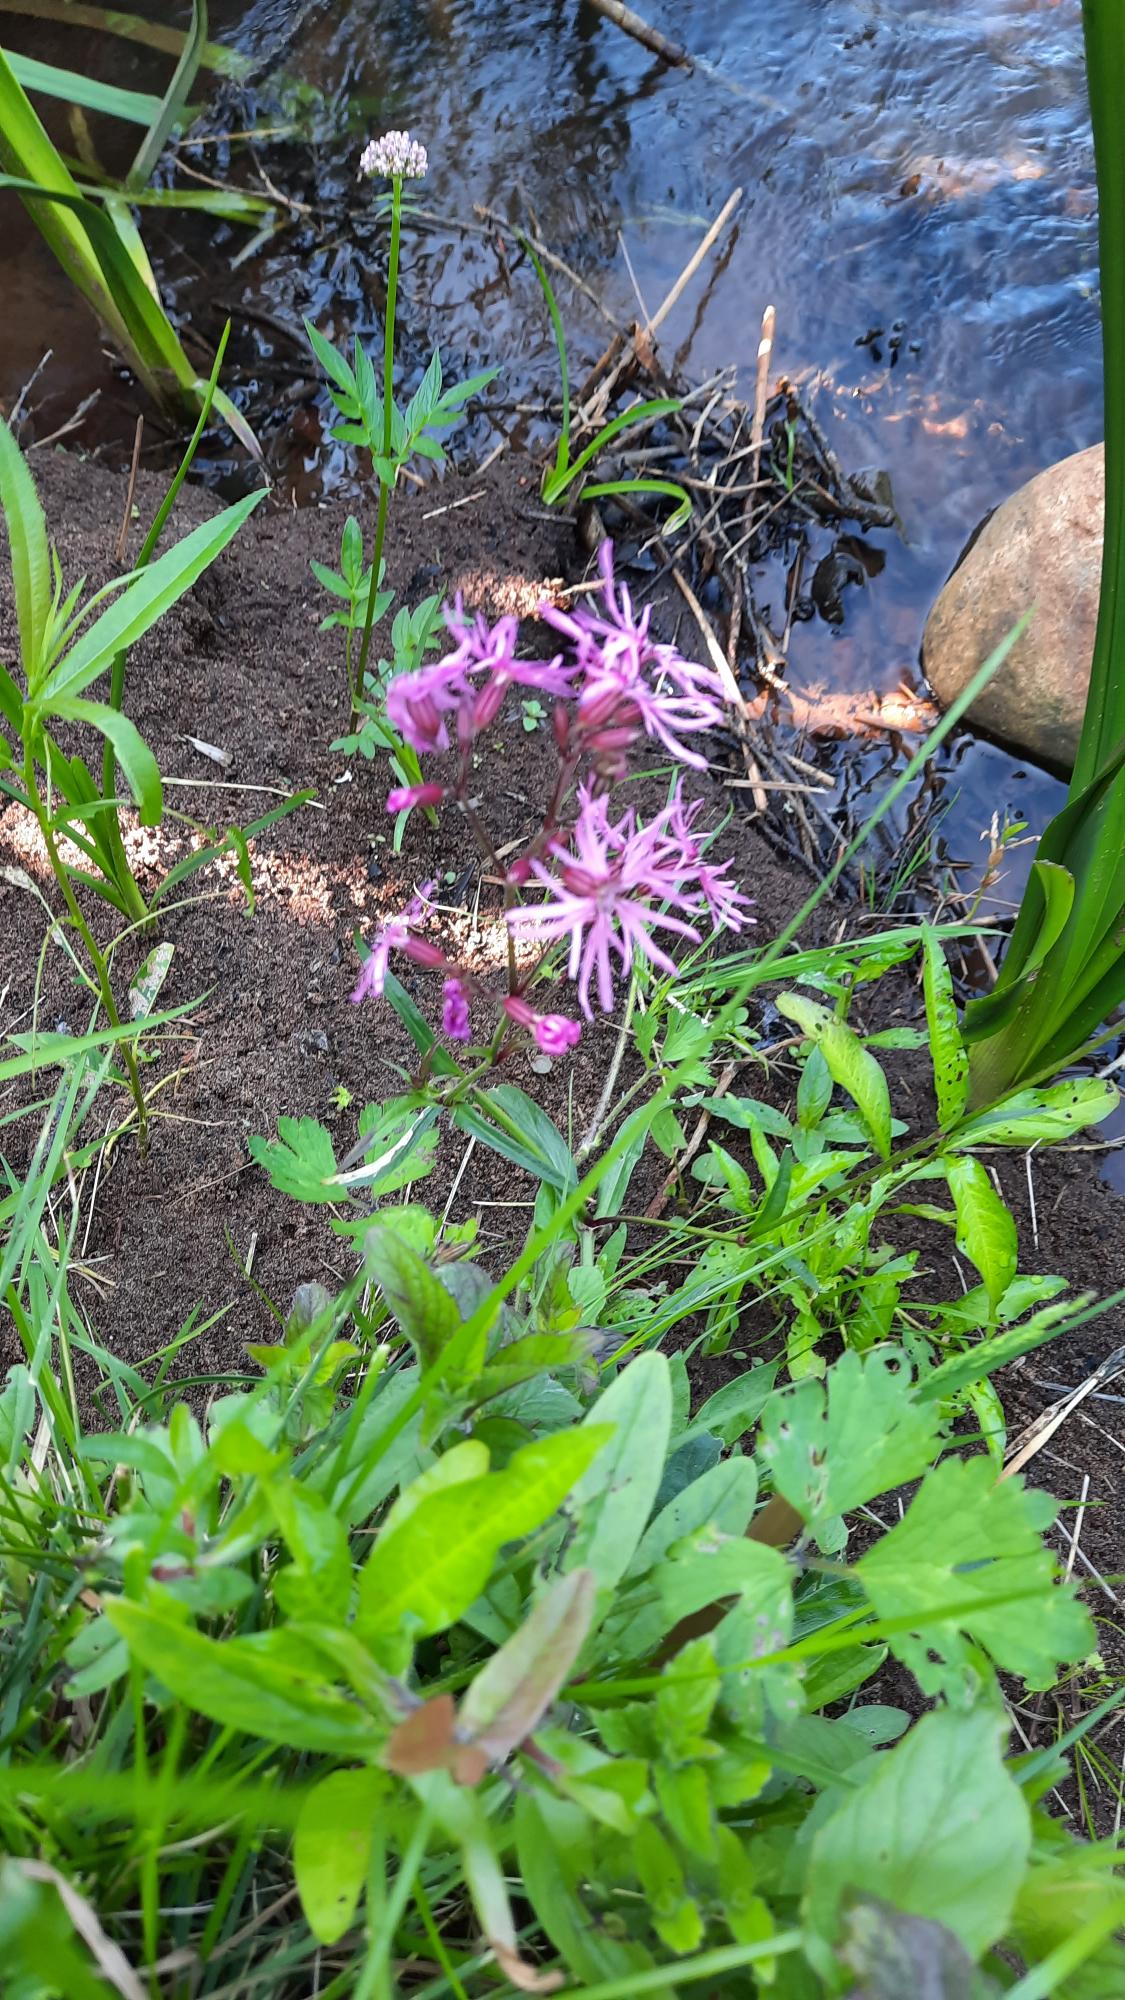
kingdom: Plantae
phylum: Tracheophyta
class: Magnoliopsida
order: Caryophyllales
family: Caryophyllaceae
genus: Silene
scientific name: Silene flos-cuculi
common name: Trævlekrone
